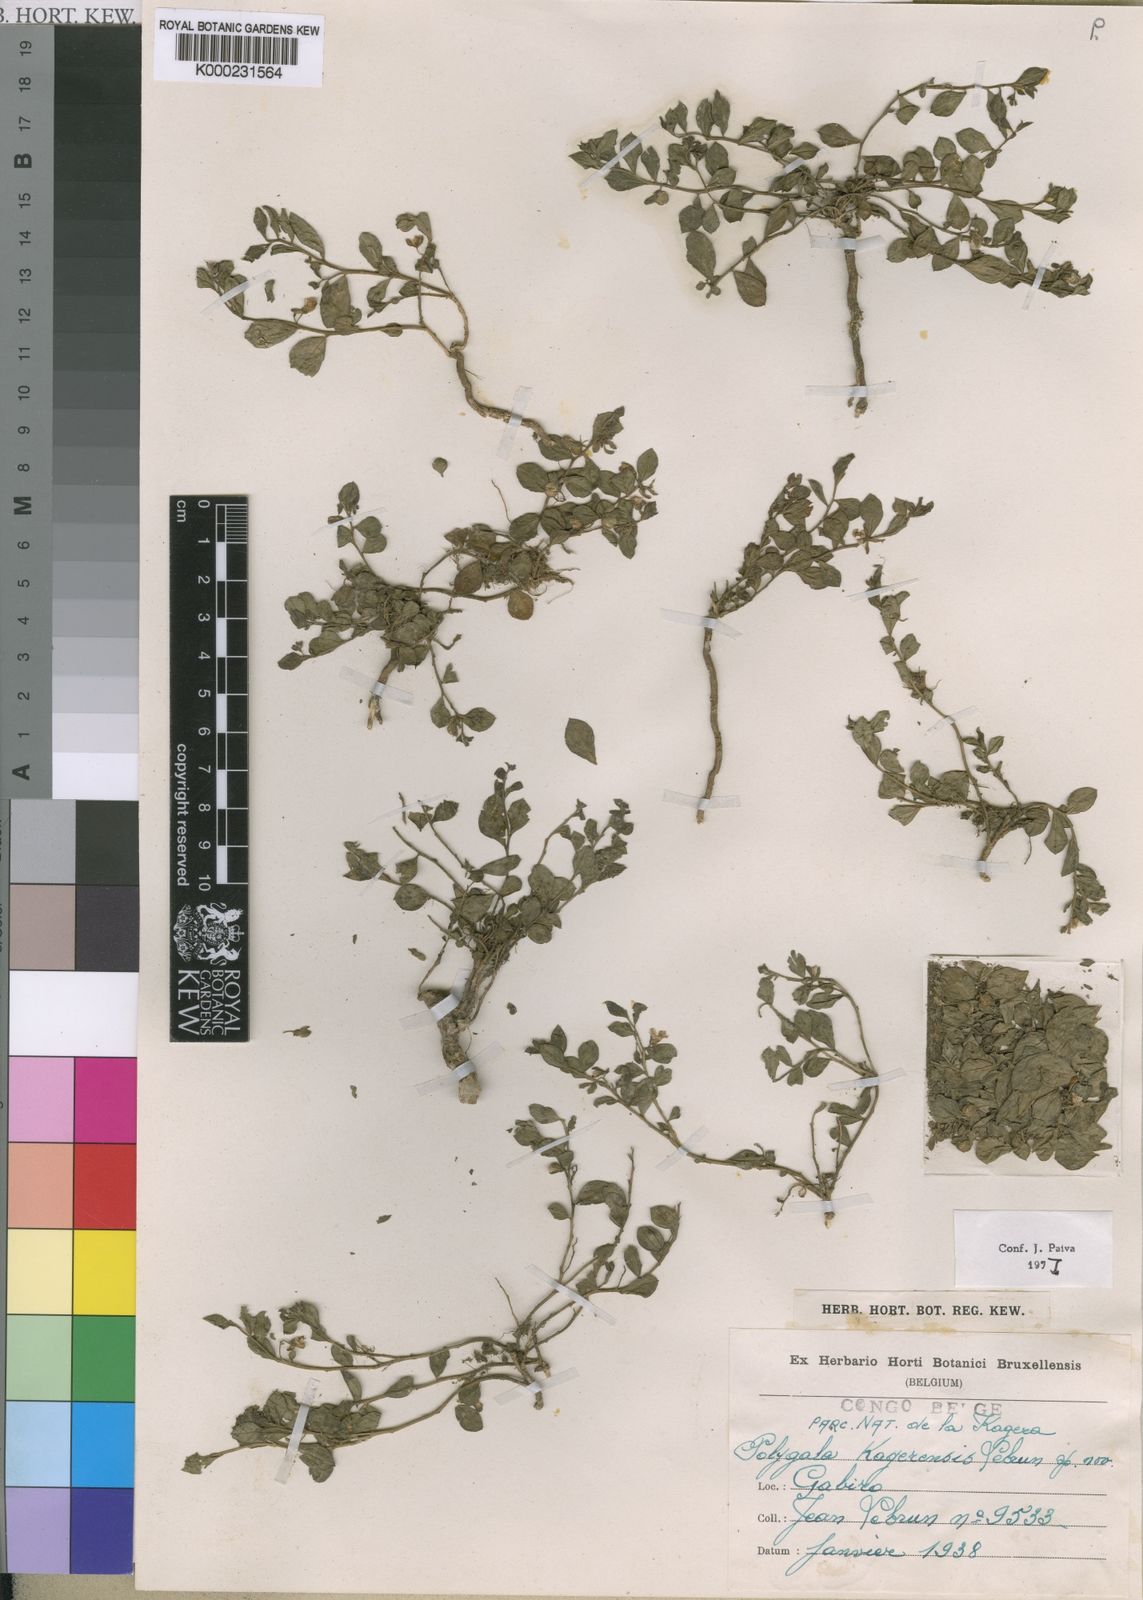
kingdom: Plantae
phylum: Tracheophyta
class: Magnoliopsida
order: Fabales
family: Polygalaceae
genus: Polygala
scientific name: Polygala transvaalensis
